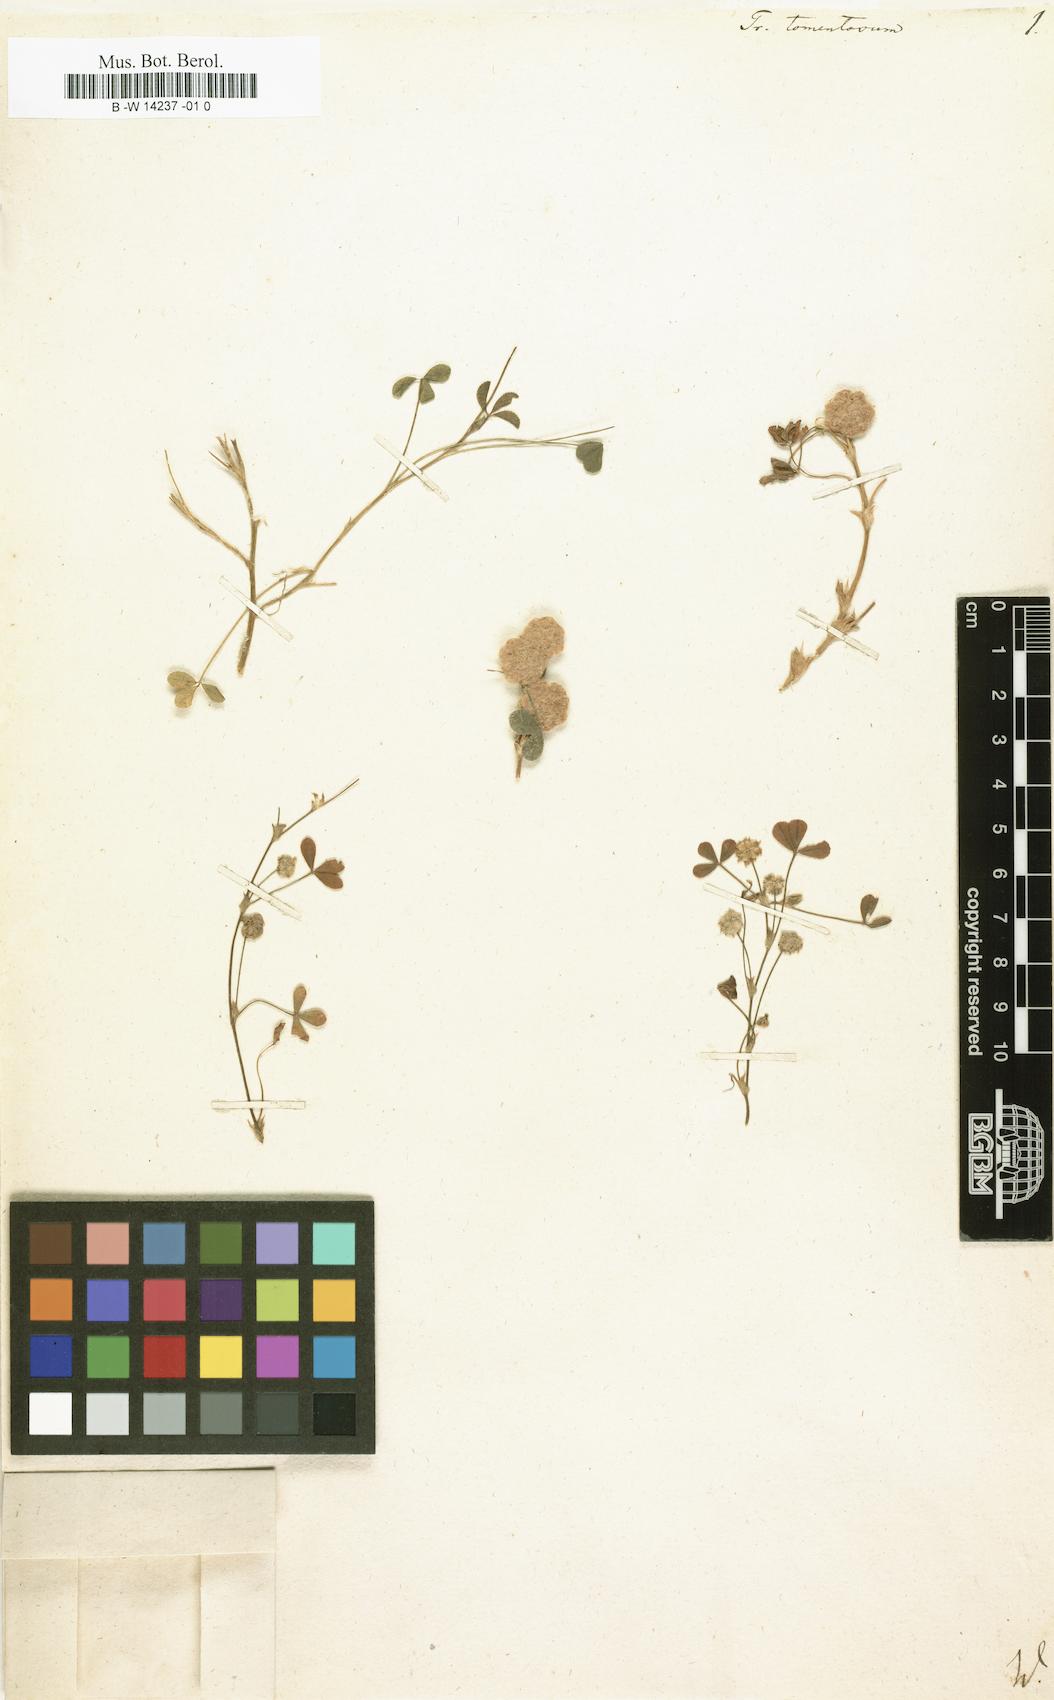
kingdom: Plantae
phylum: Tracheophyta
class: Magnoliopsida
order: Fabales
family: Fabaceae
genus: Trifolium
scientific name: Trifolium tomentosum
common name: Woolly clover
